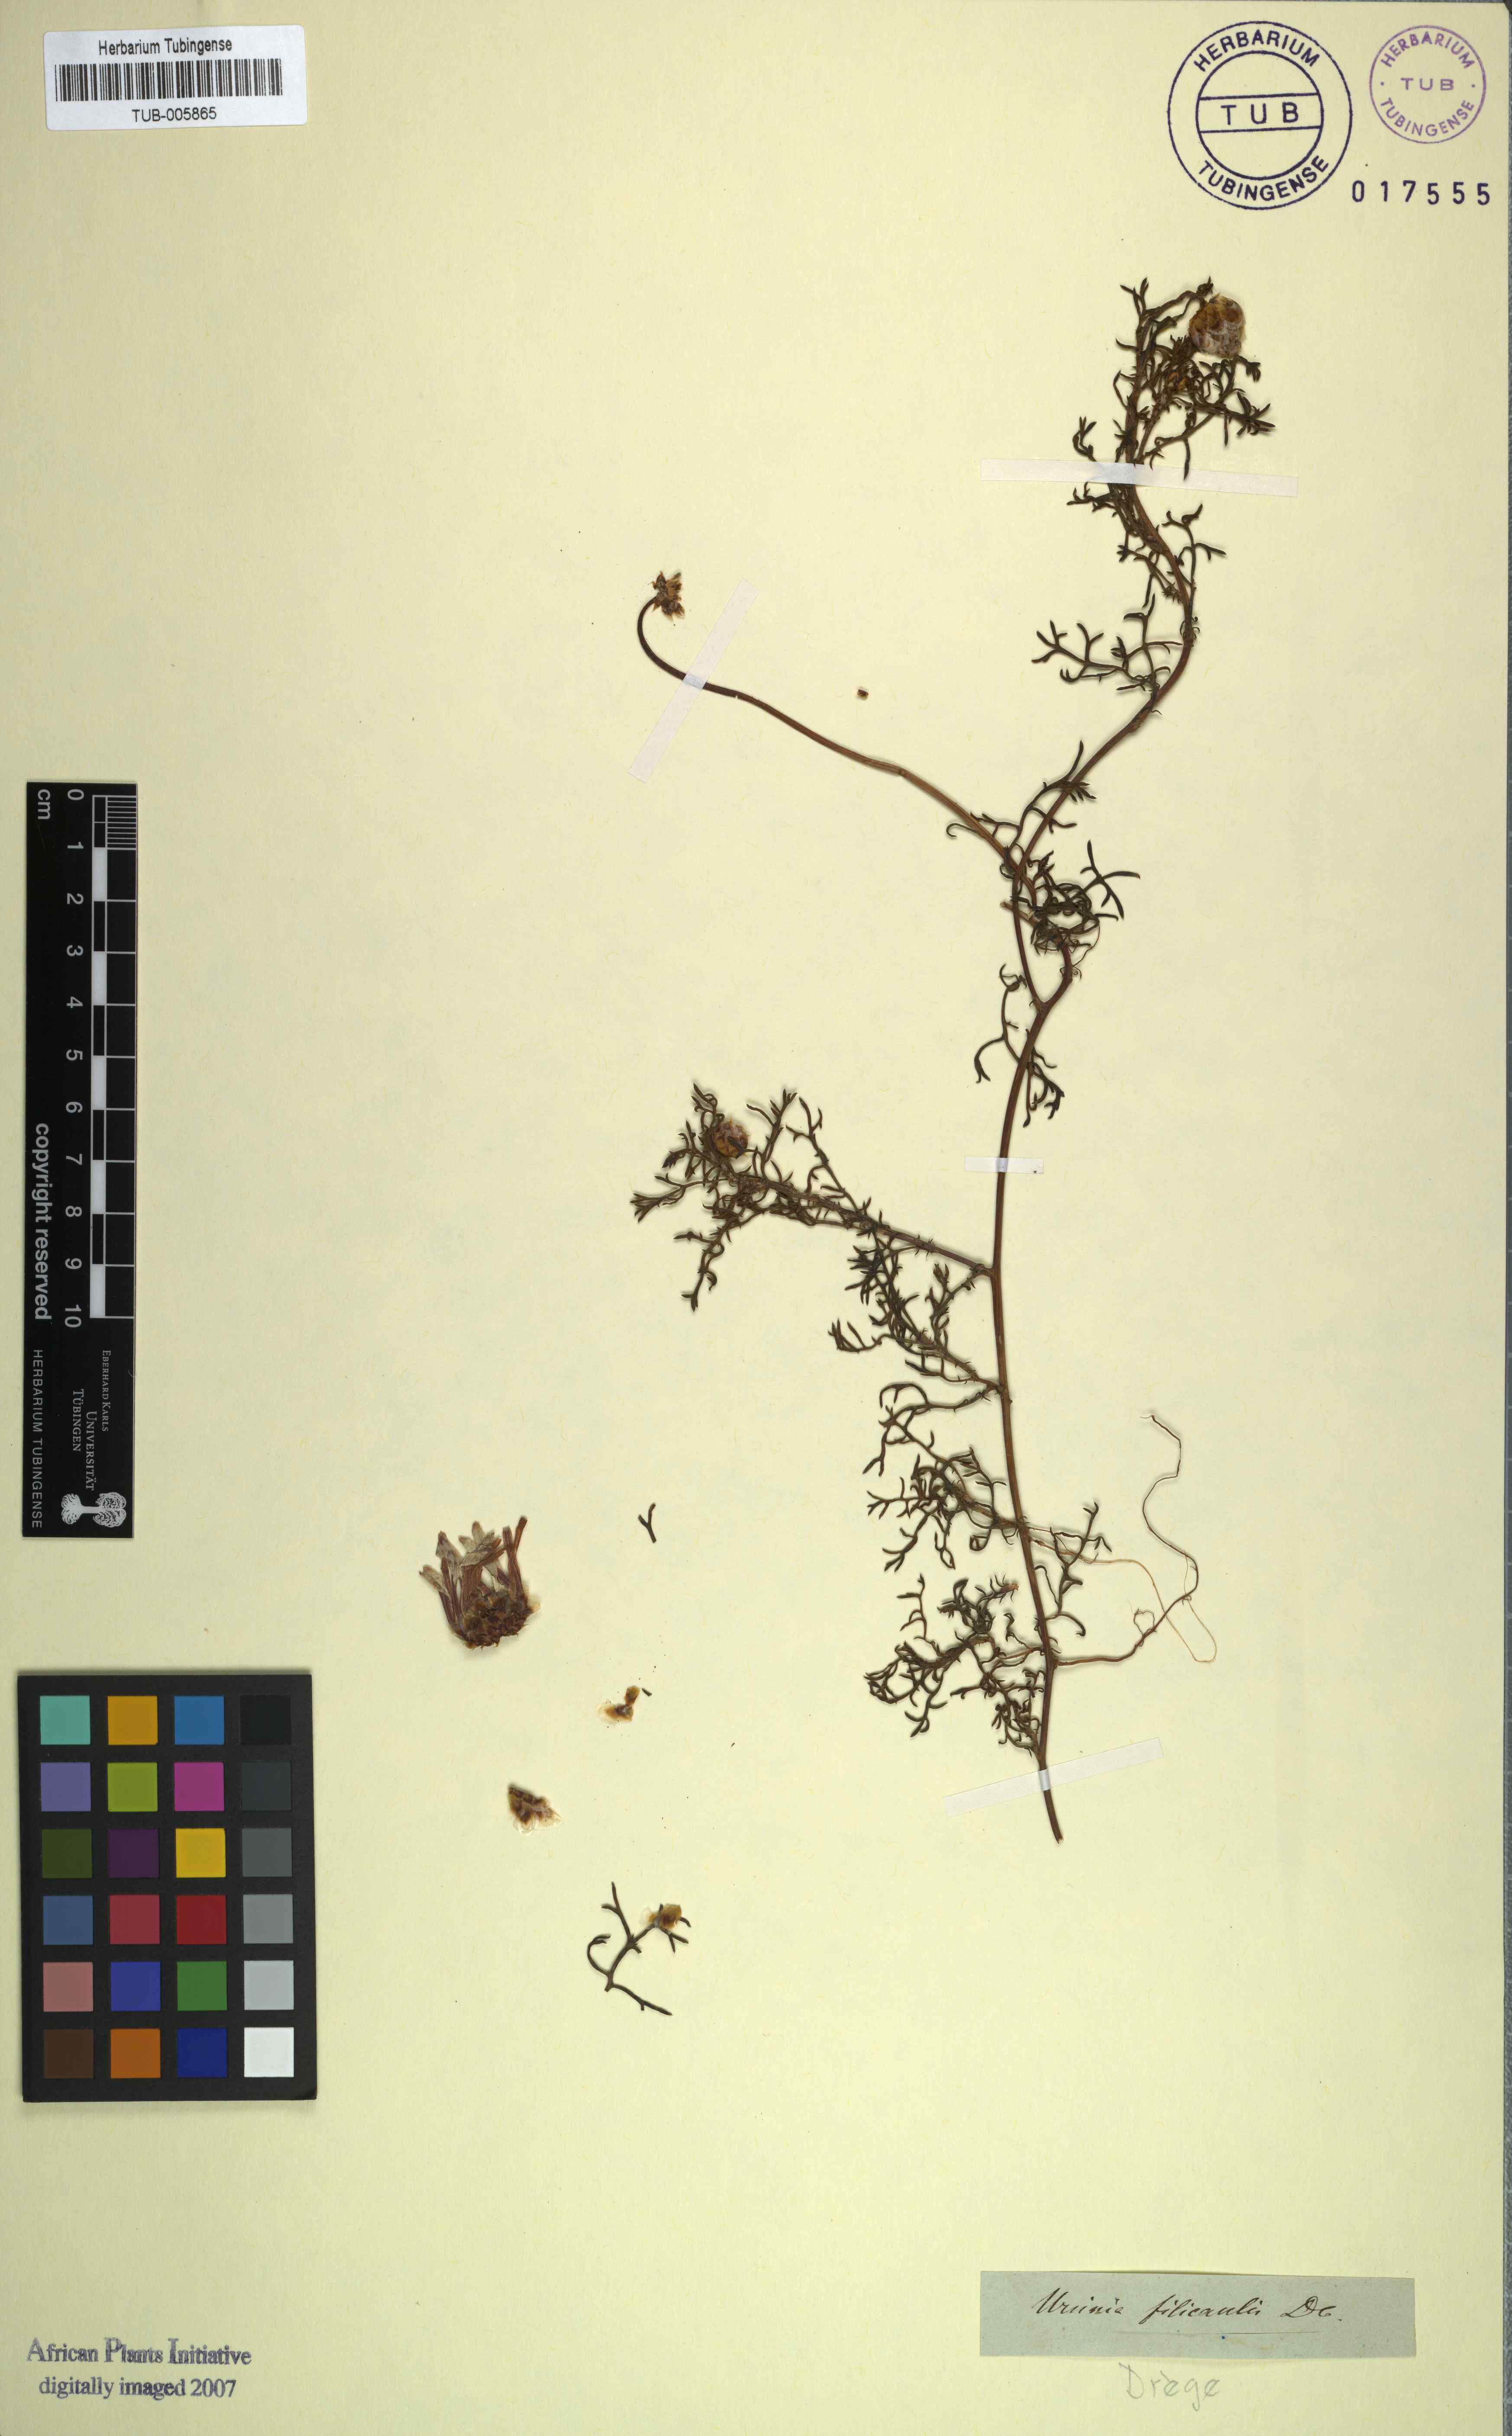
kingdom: Plantae
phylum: Tracheophyta
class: Magnoliopsida
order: Asterales
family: Asteraceae
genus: Ursinia
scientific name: Ursinia filicaulis
